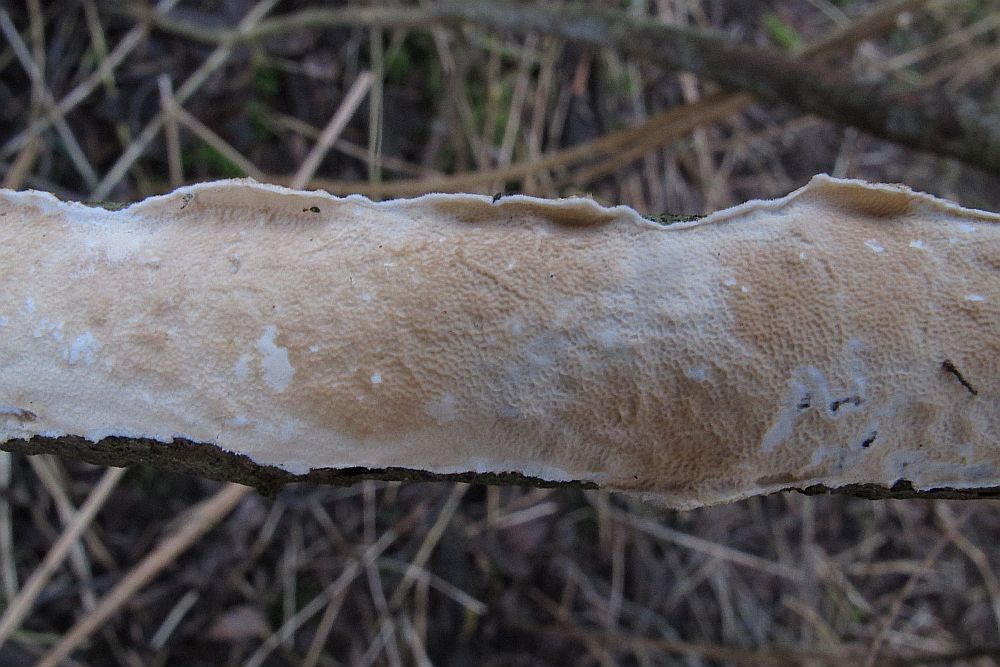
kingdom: Fungi
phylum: Basidiomycota
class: Agaricomycetes
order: Polyporales
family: Irpicaceae
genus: Byssomerulius
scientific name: Byssomerulius corium
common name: læder-åresvamp
